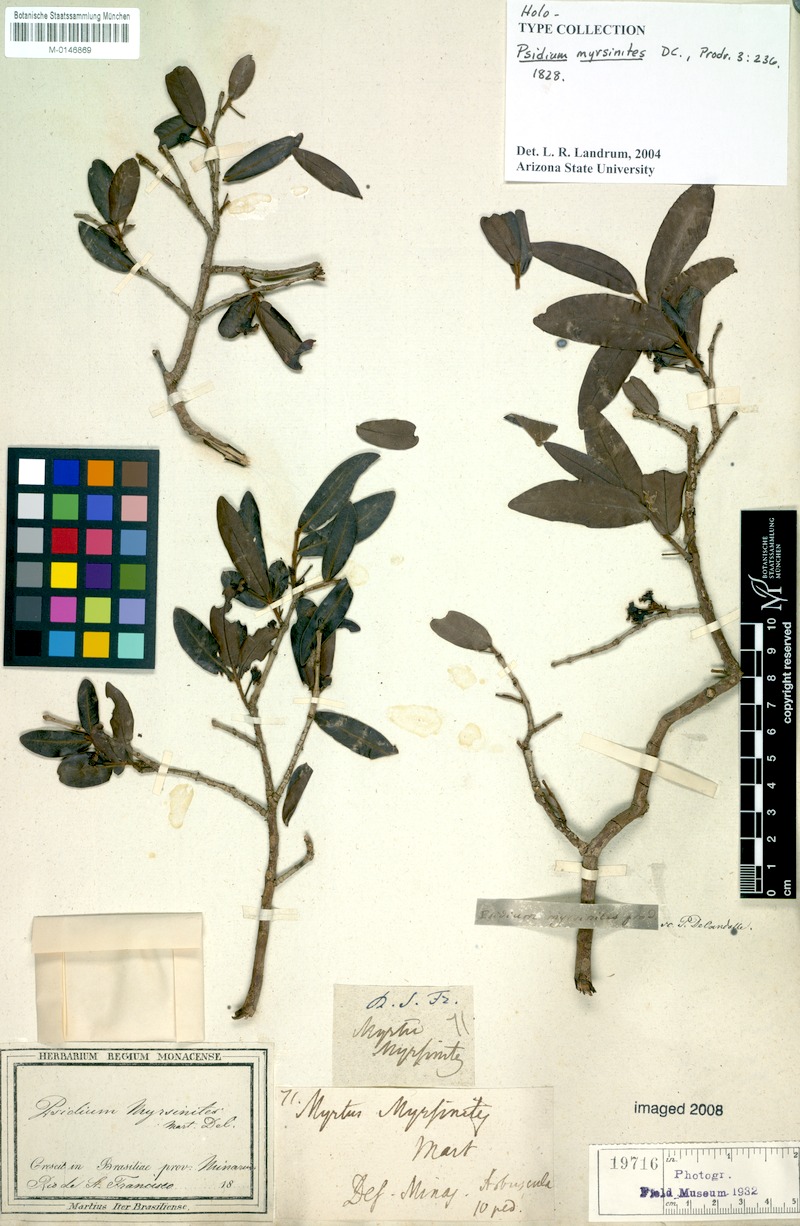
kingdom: Plantae
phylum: Tracheophyta
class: Magnoliopsida
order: Myrtales
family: Myrtaceae
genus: Psidium
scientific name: Psidium myrsinites
